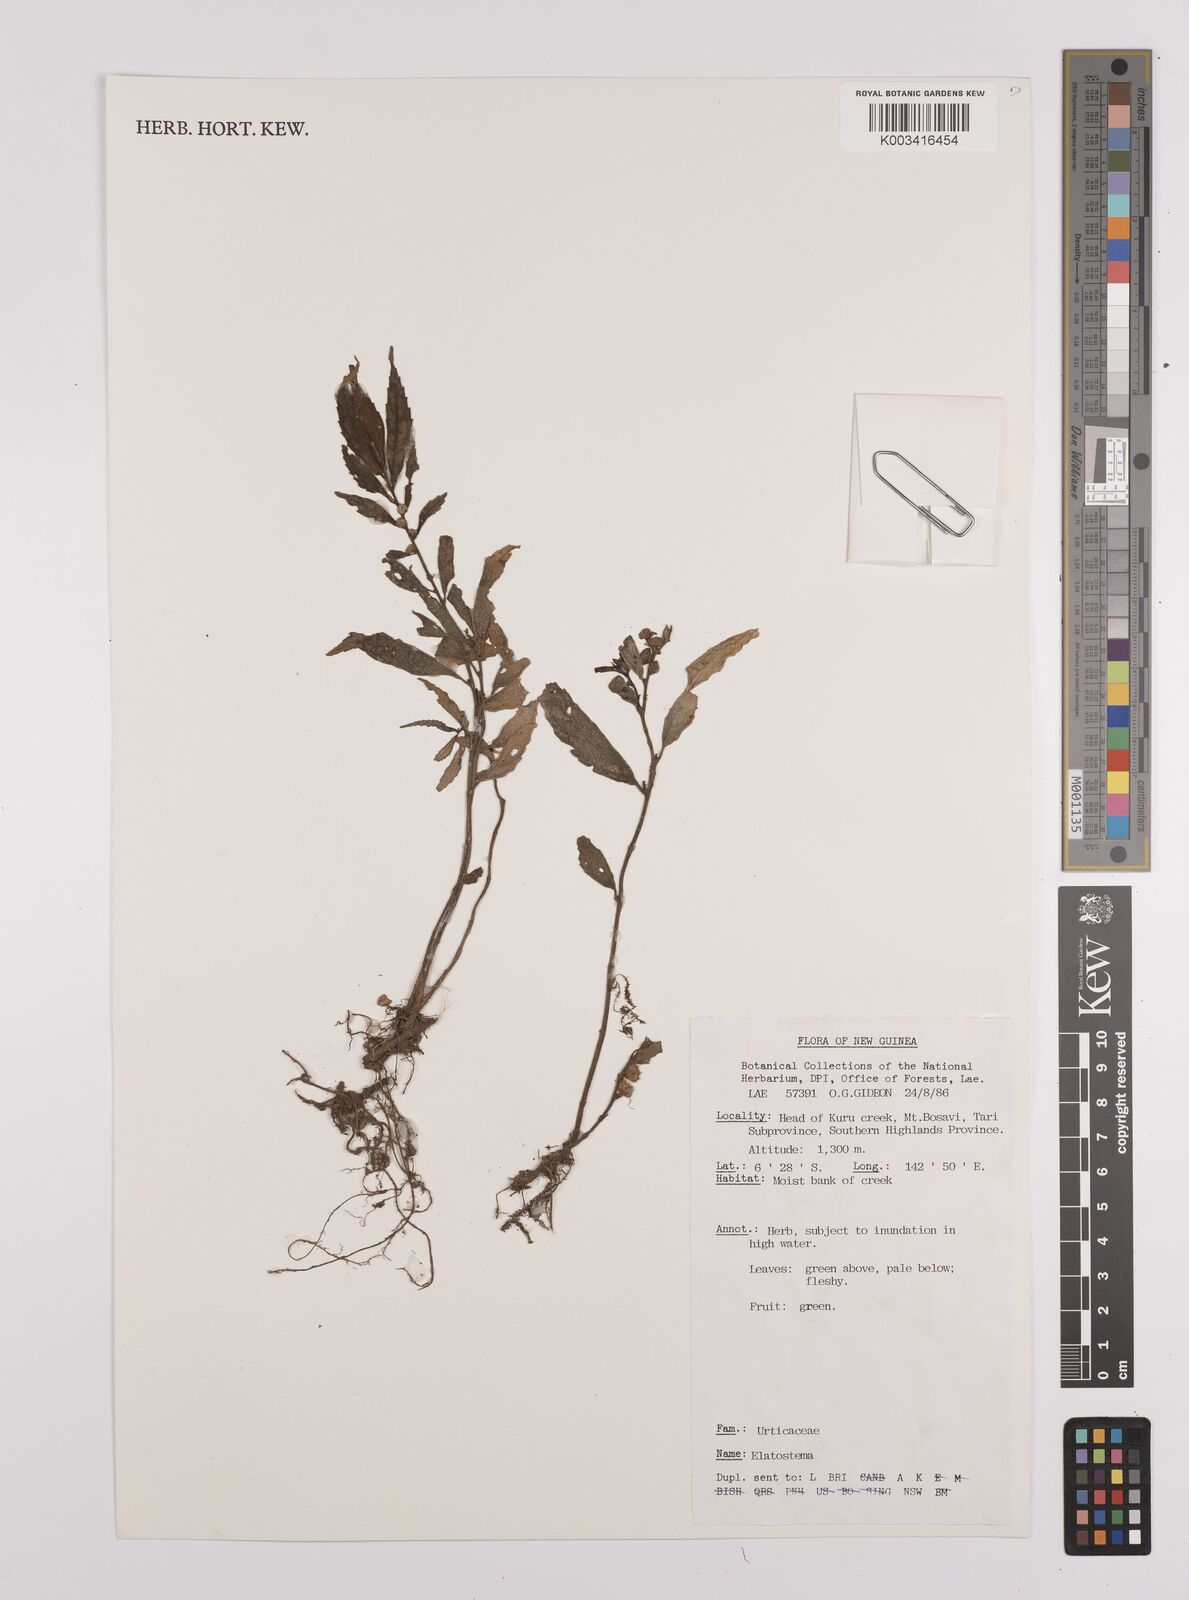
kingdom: Plantae
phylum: Tracheophyta
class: Magnoliopsida
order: Rosales
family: Urticaceae
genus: Elatostema
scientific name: Elatostema
